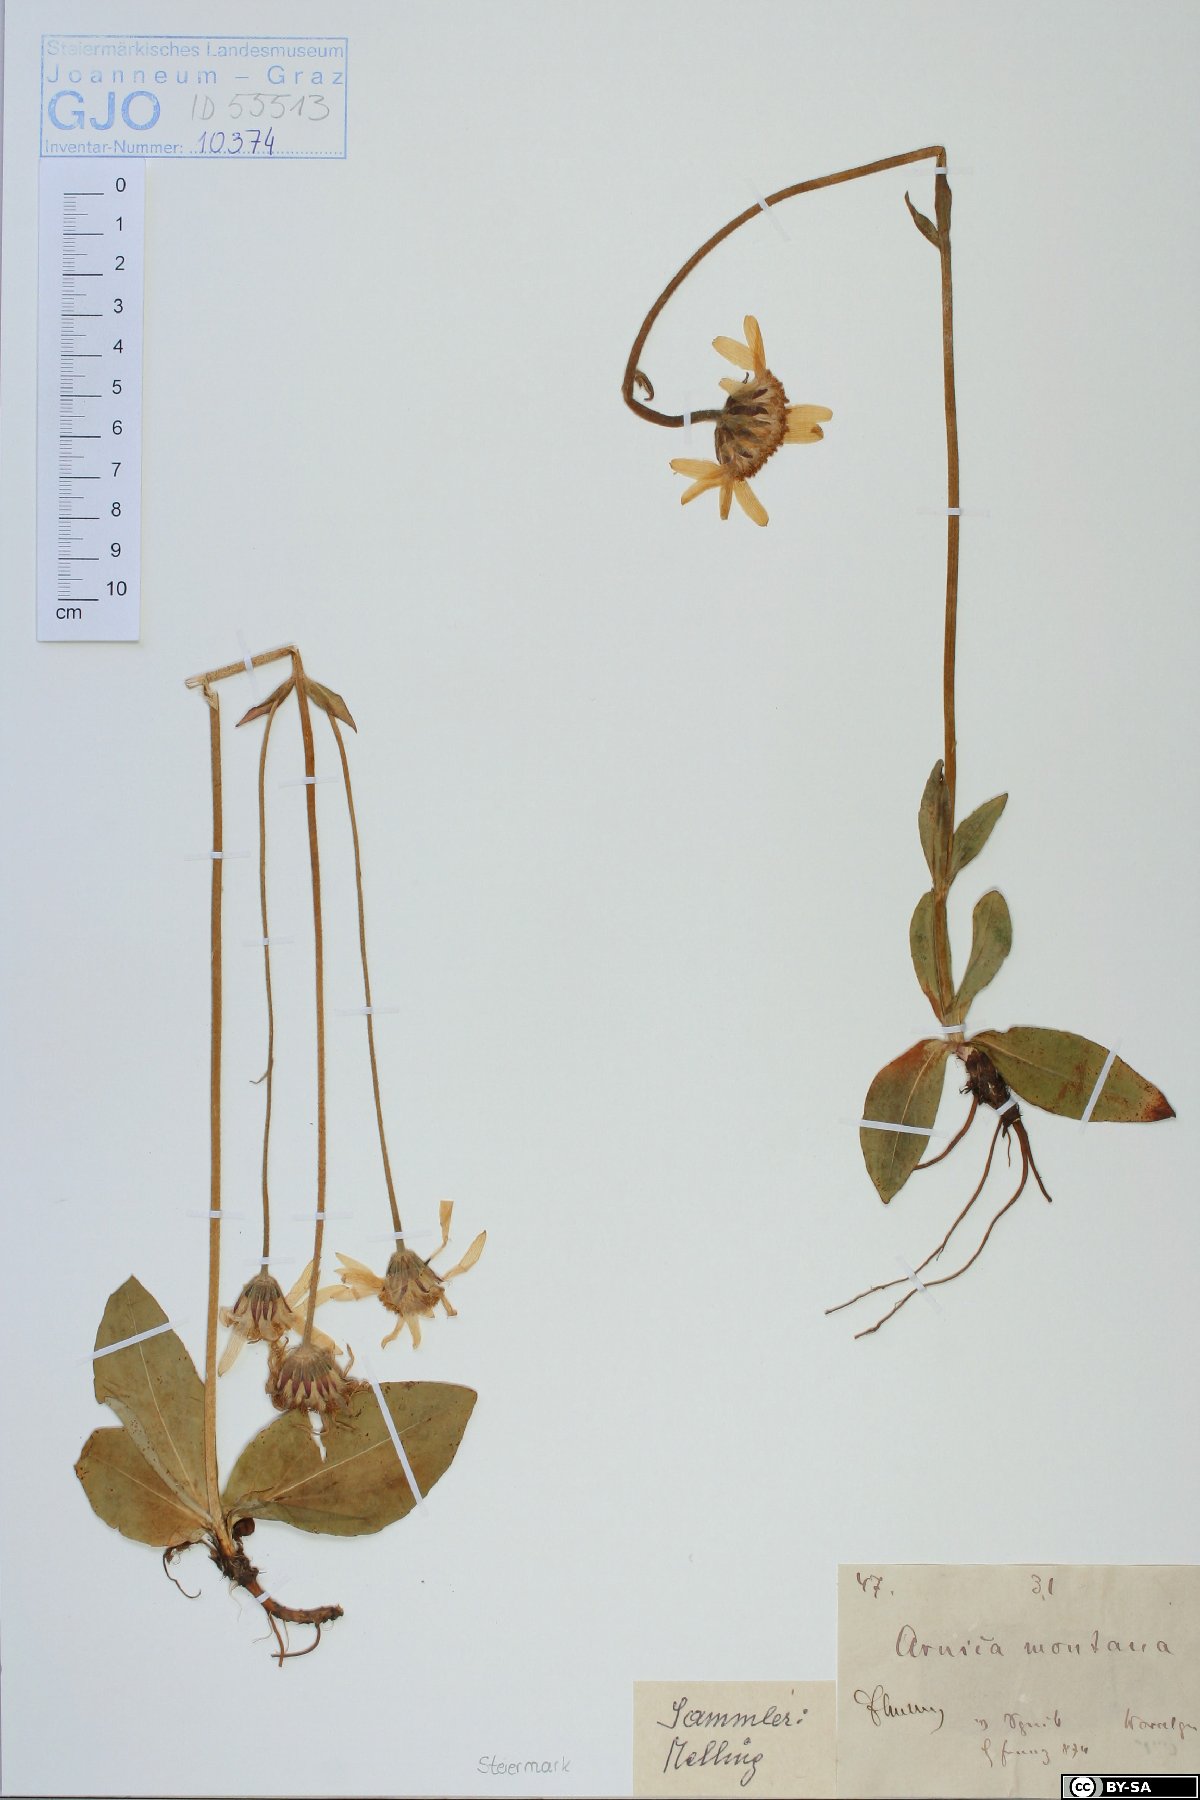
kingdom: Plantae
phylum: Tracheophyta
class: Magnoliopsida
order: Asterales
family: Asteraceae
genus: Arnica
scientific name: Arnica montana
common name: Leopard's bane
